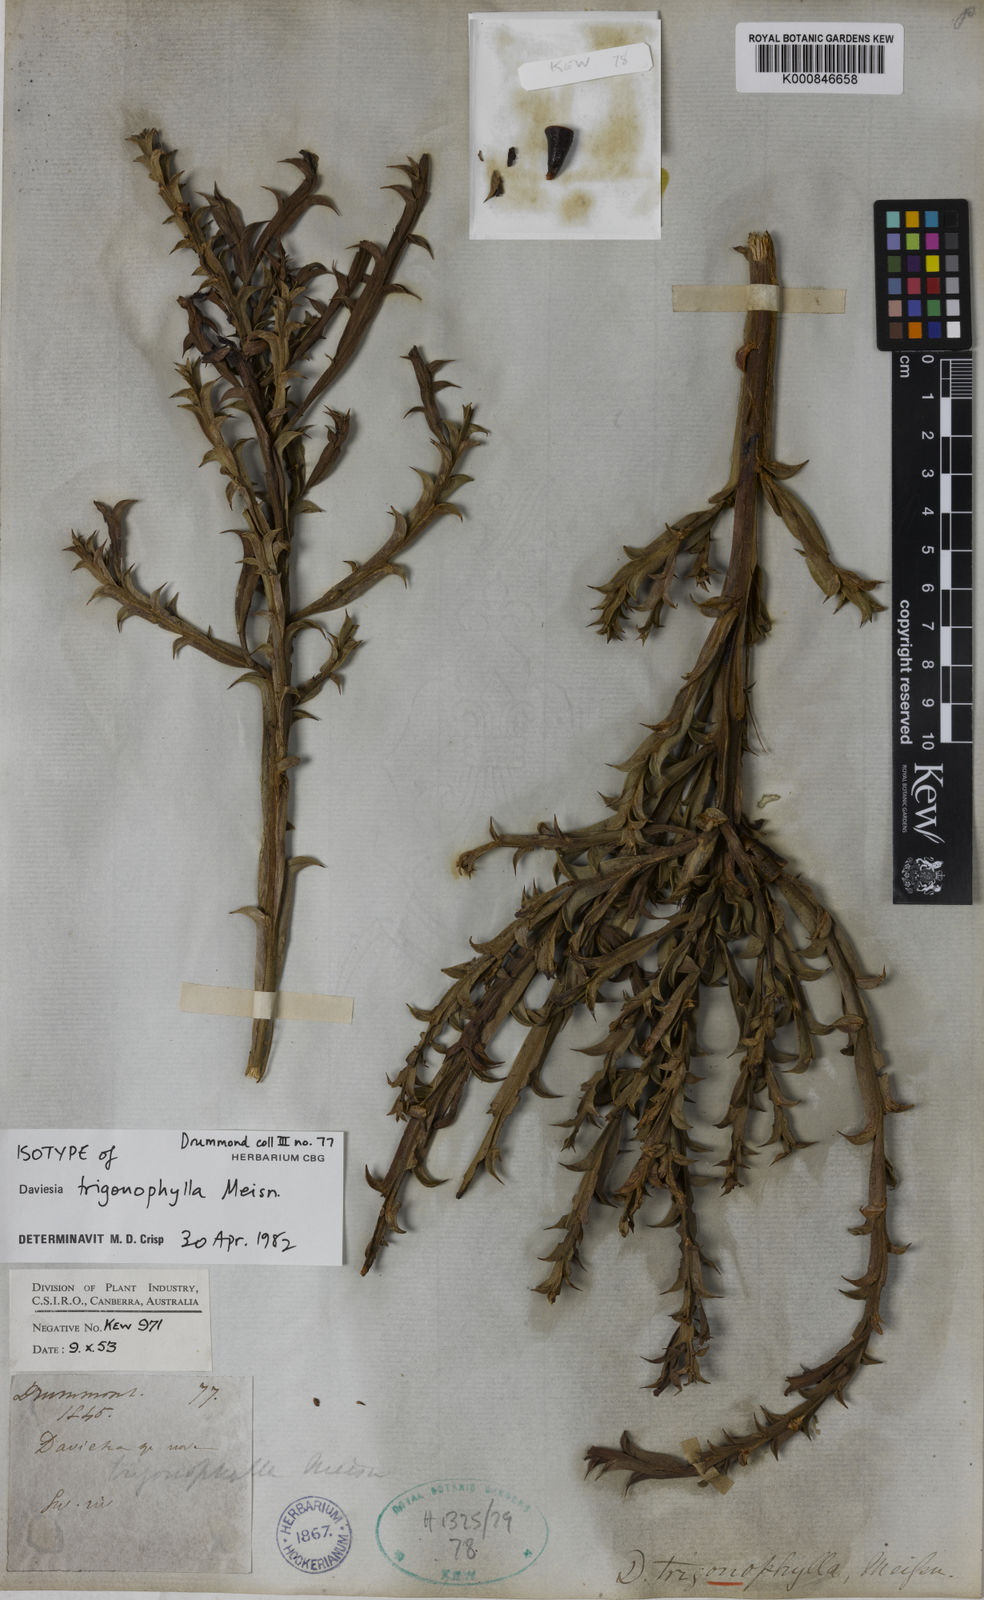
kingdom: Plantae
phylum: Tracheophyta
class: Magnoliopsida
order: Fabales
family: Fabaceae
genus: Daviesia
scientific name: Daviesia trigonophylla
